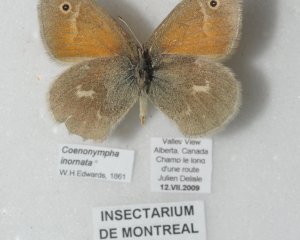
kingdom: Animalia
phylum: Arthropoda
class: Insecta
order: Lepidoptera
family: Nymphalidae
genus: Coenonympha
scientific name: Coenonympha tullia
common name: Large Heath
